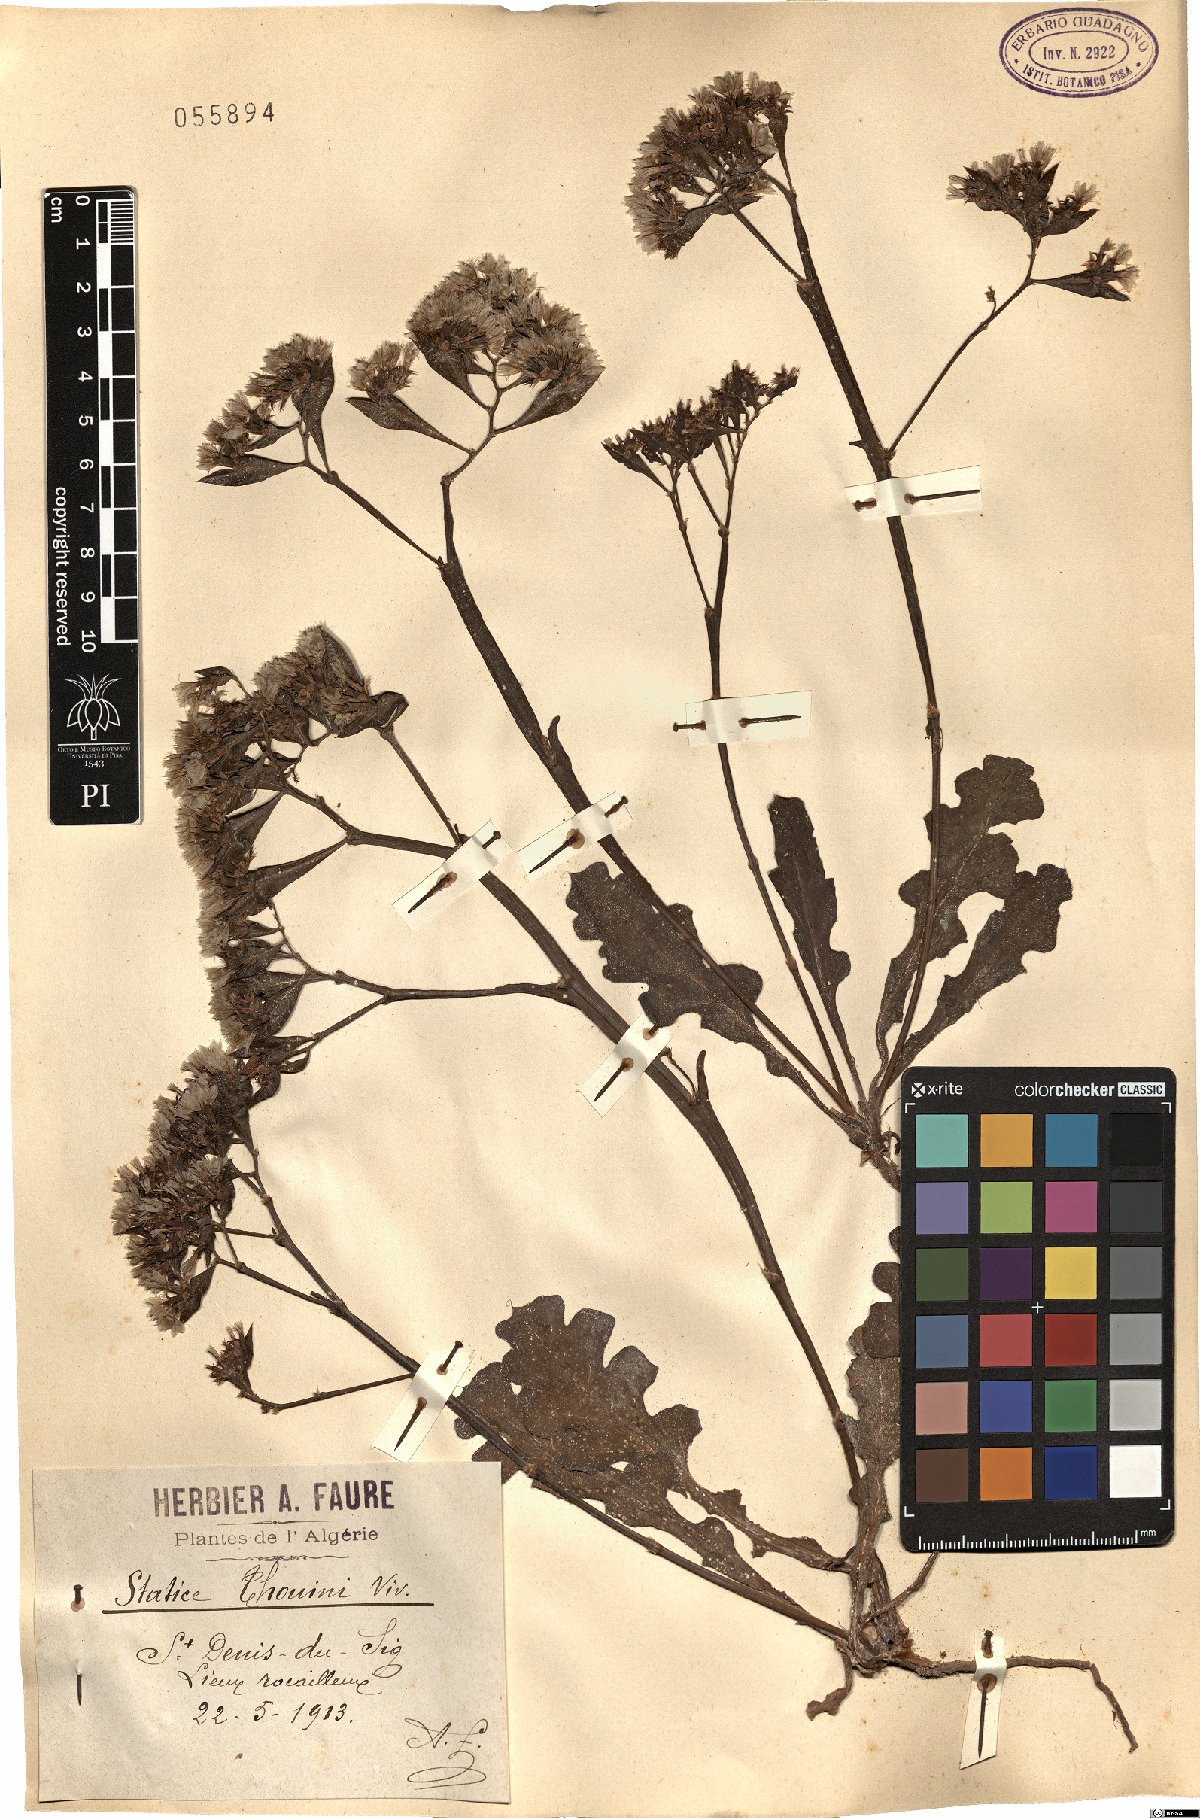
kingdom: Plantae
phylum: Tracheophyta
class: Magnoliopsida
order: Caryophyllales
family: Plumbaginaceae
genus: Limonium
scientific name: Limonium lobatum
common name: Winged sea-lavender
